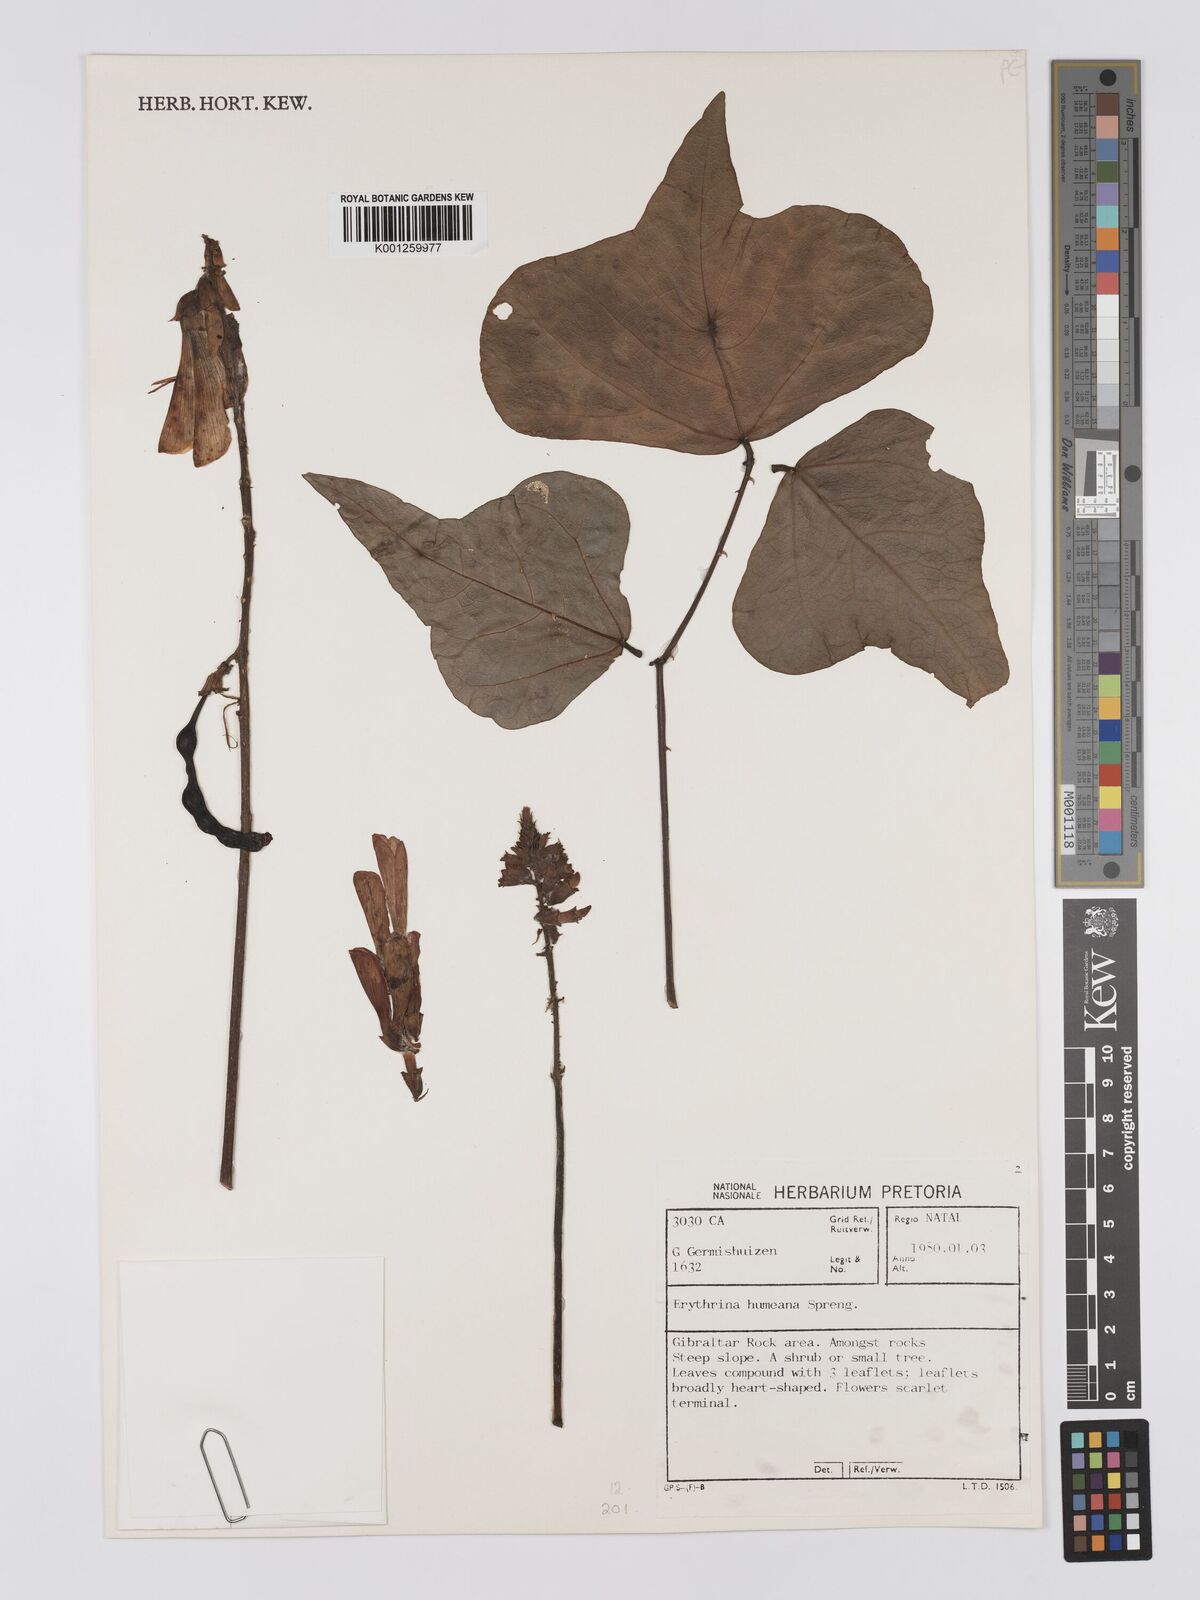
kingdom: Plantae
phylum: Tracheophyta
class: Magnoliopsida
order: Fabales
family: Fabaceae
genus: Erythrina
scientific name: Erythrina humeana
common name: Dwarf coral tree
